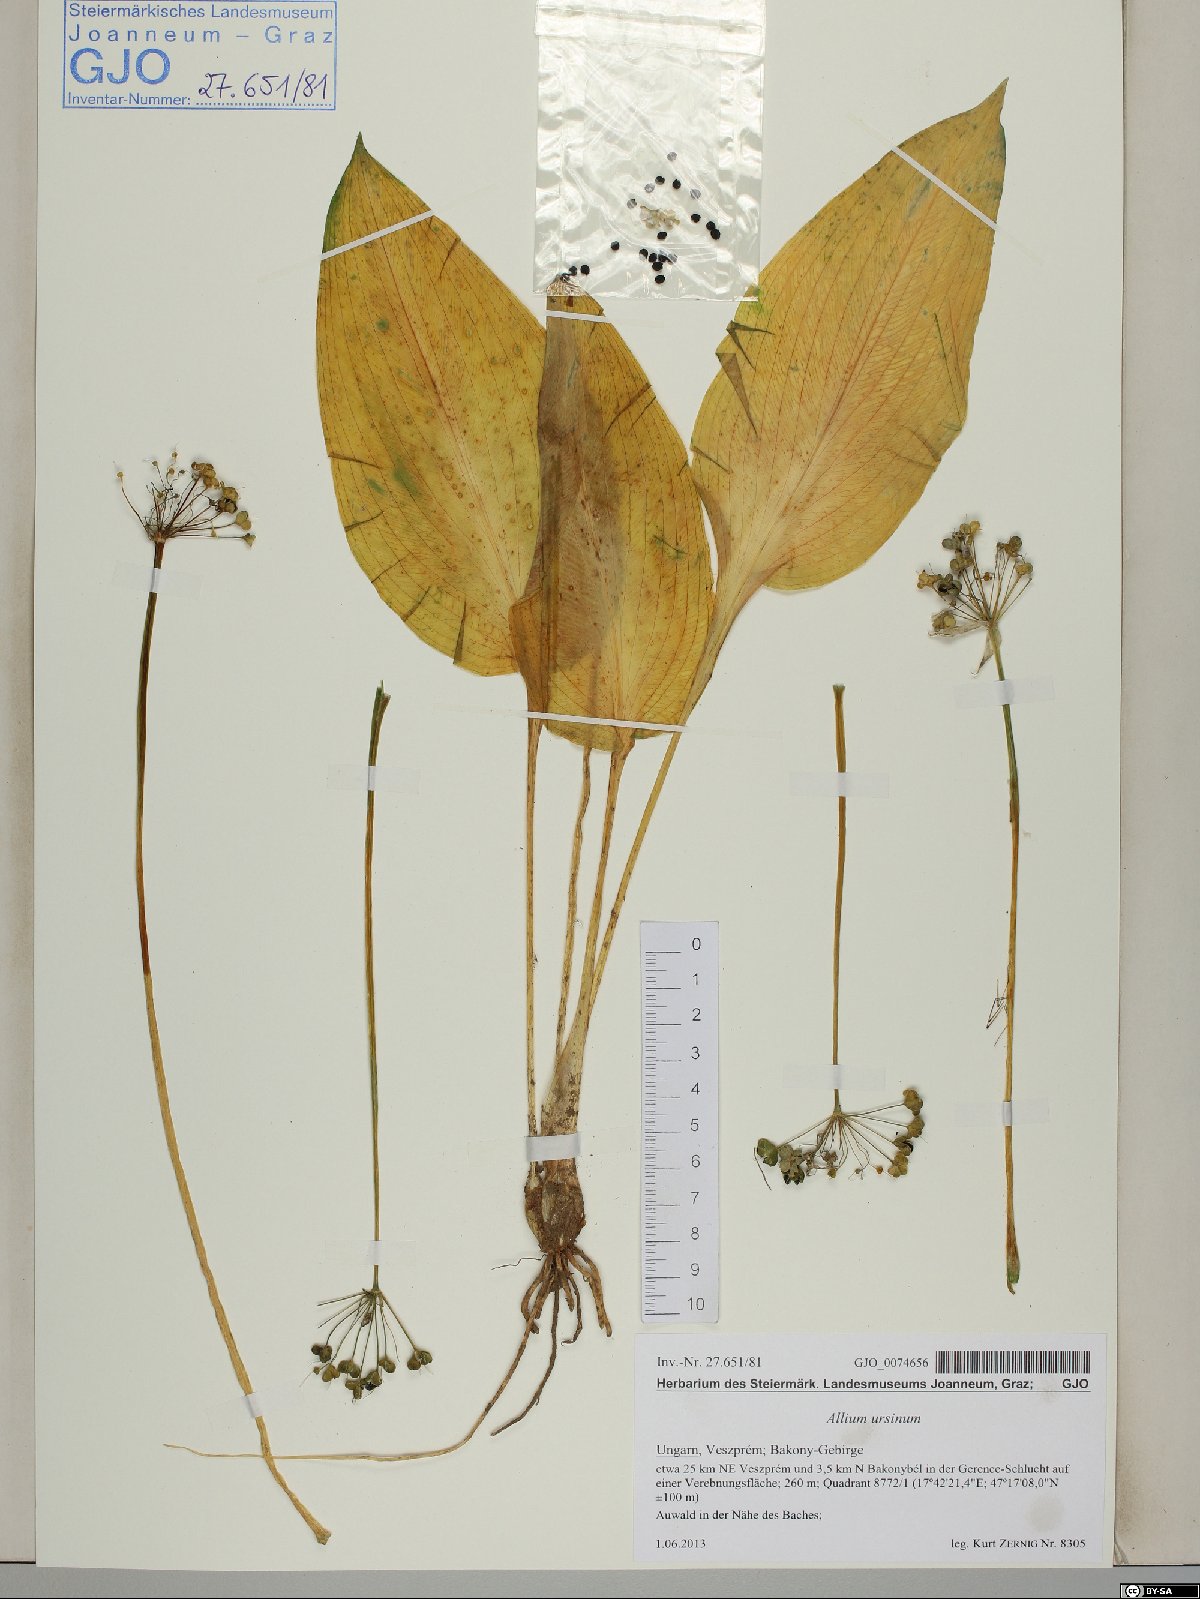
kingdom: Plantae
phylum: Tracheophyta
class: Liliopsida
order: Asparagales
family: Amaryllidaceae
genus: Allium
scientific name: Allium ursinum
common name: Ramsons
